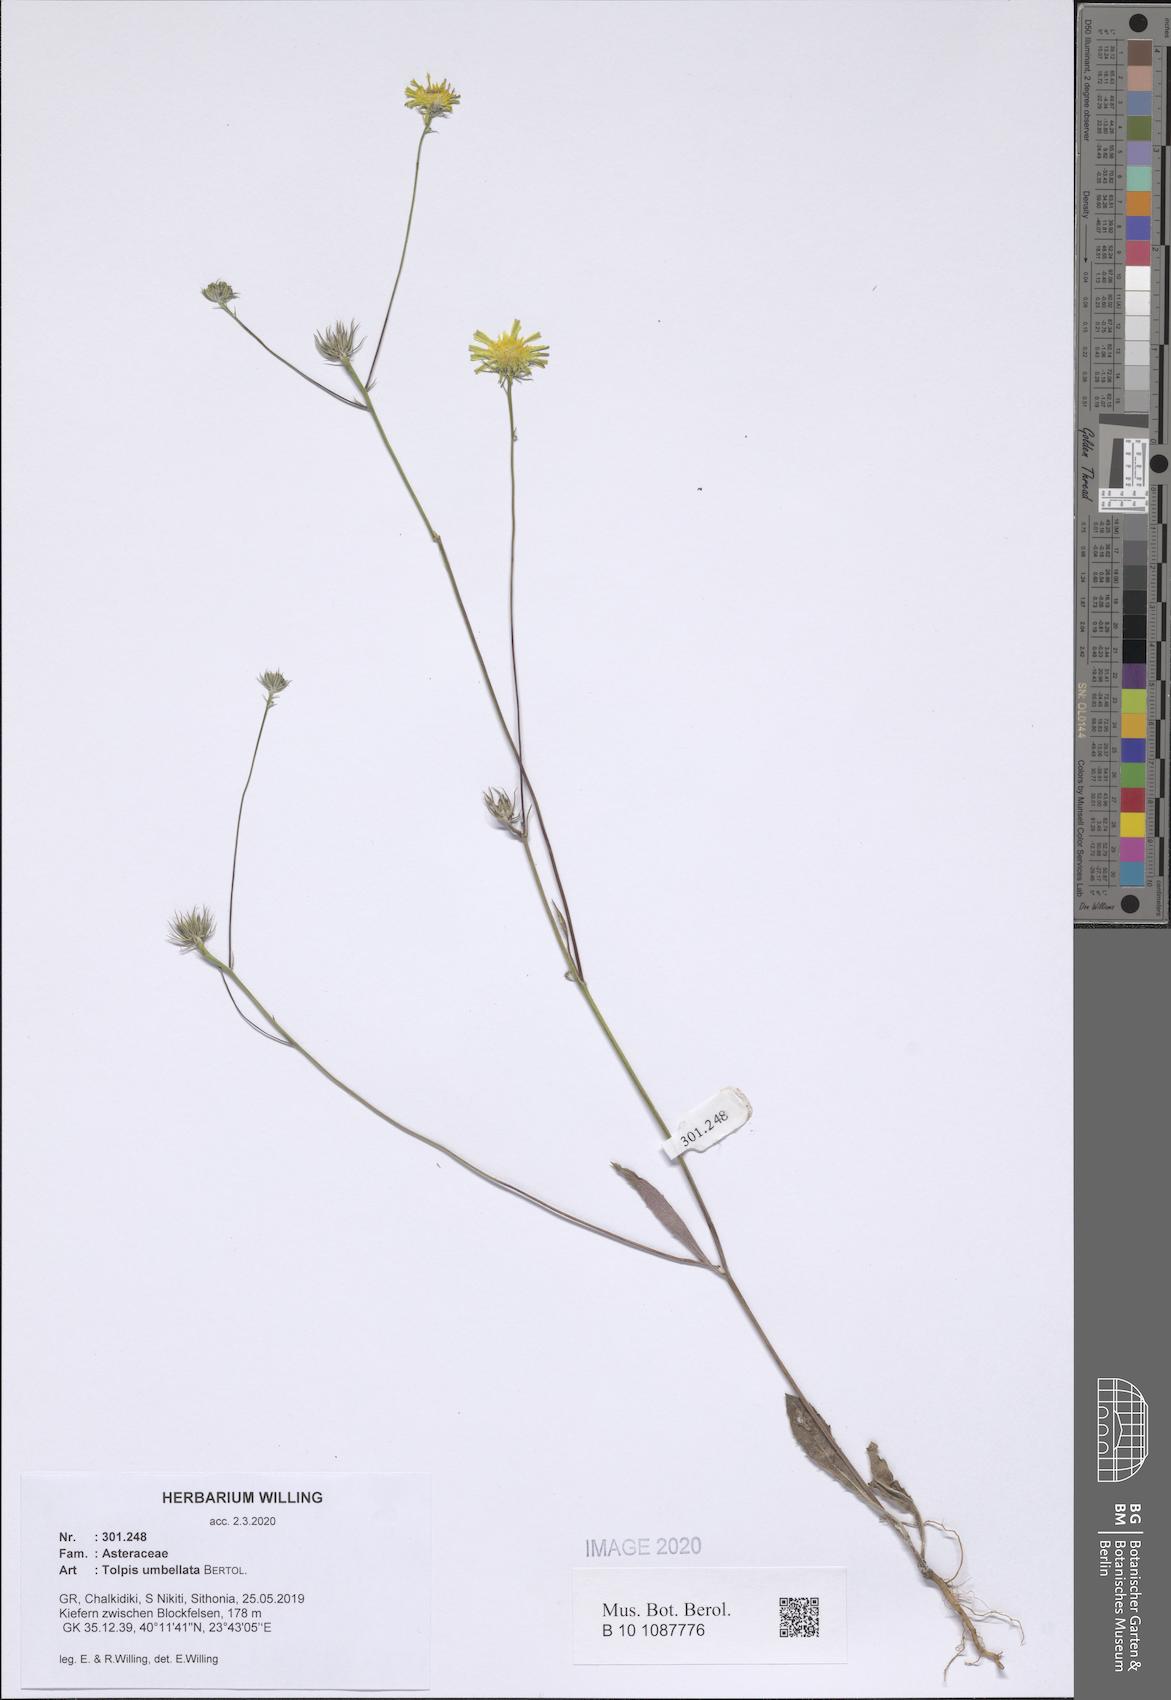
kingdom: Plantae
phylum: Tracheophyta
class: Magnoliopsida
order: Asterales
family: Asteraceae
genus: Tolpis
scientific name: Tolpis umbellata
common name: Yellow hawkweed
